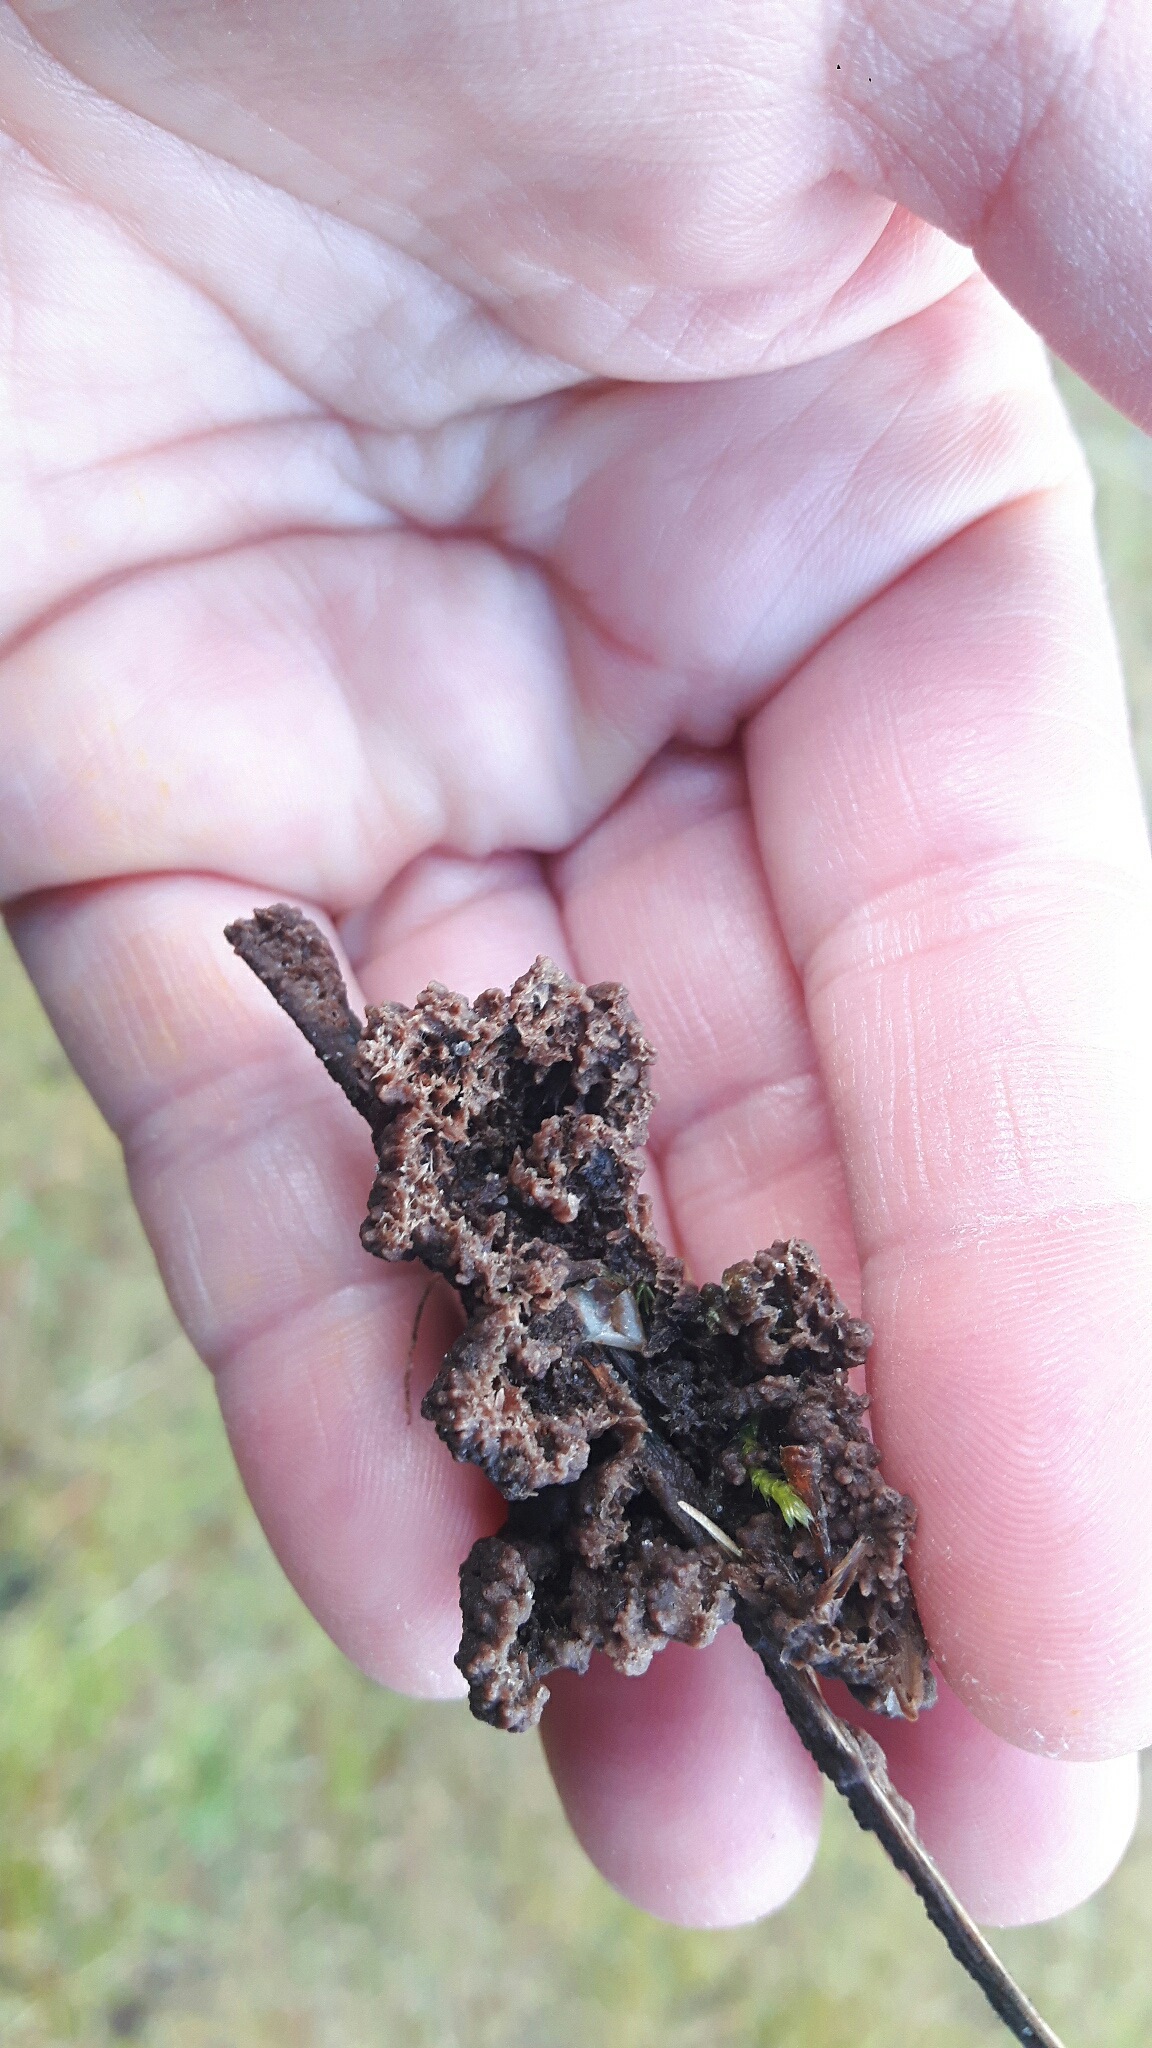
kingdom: Fungi
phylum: Basidiomycota
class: Agaricomycetes
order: Thelephorales
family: Thelephoraceae
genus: Thelephora
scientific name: Thelephora terrestris
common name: fliget frynsesvamp
